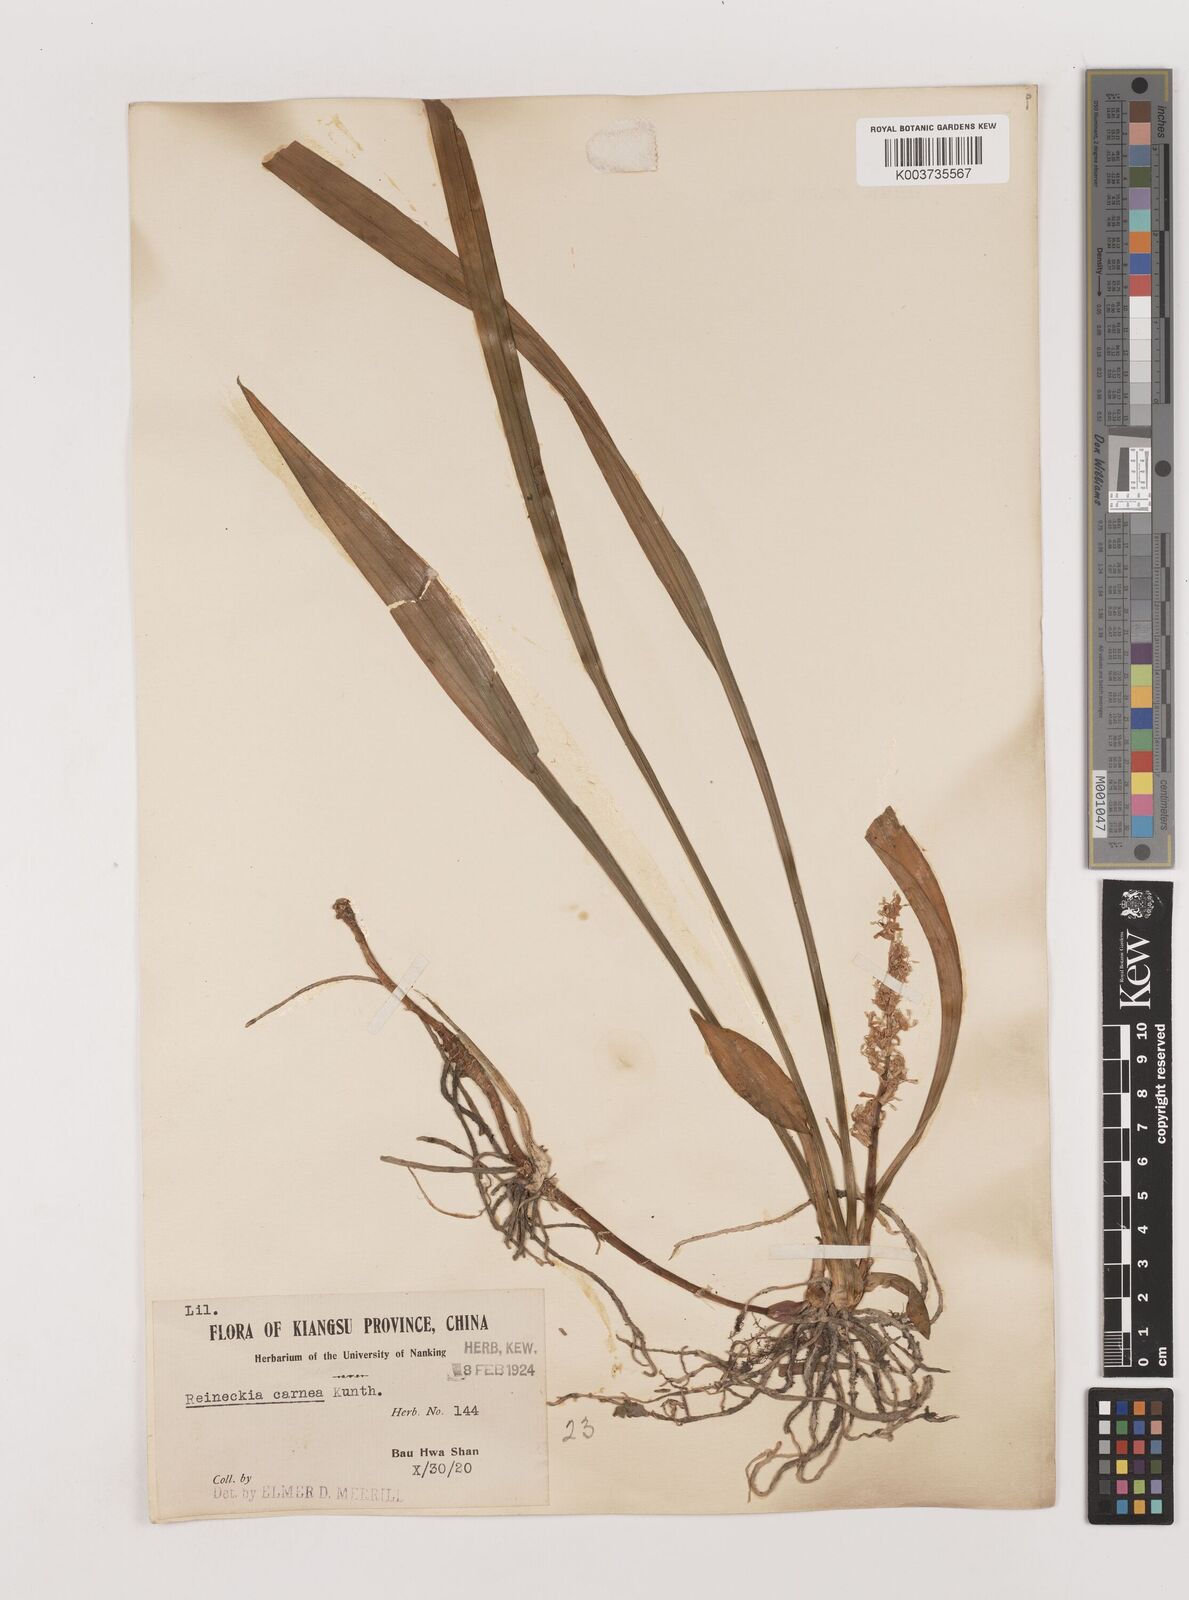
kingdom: Plantae
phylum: Tracheophyta
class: Liliopsida
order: Asparagales
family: Asparagaceae
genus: Reineckea
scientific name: Reineckea carnea
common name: Reineckea
